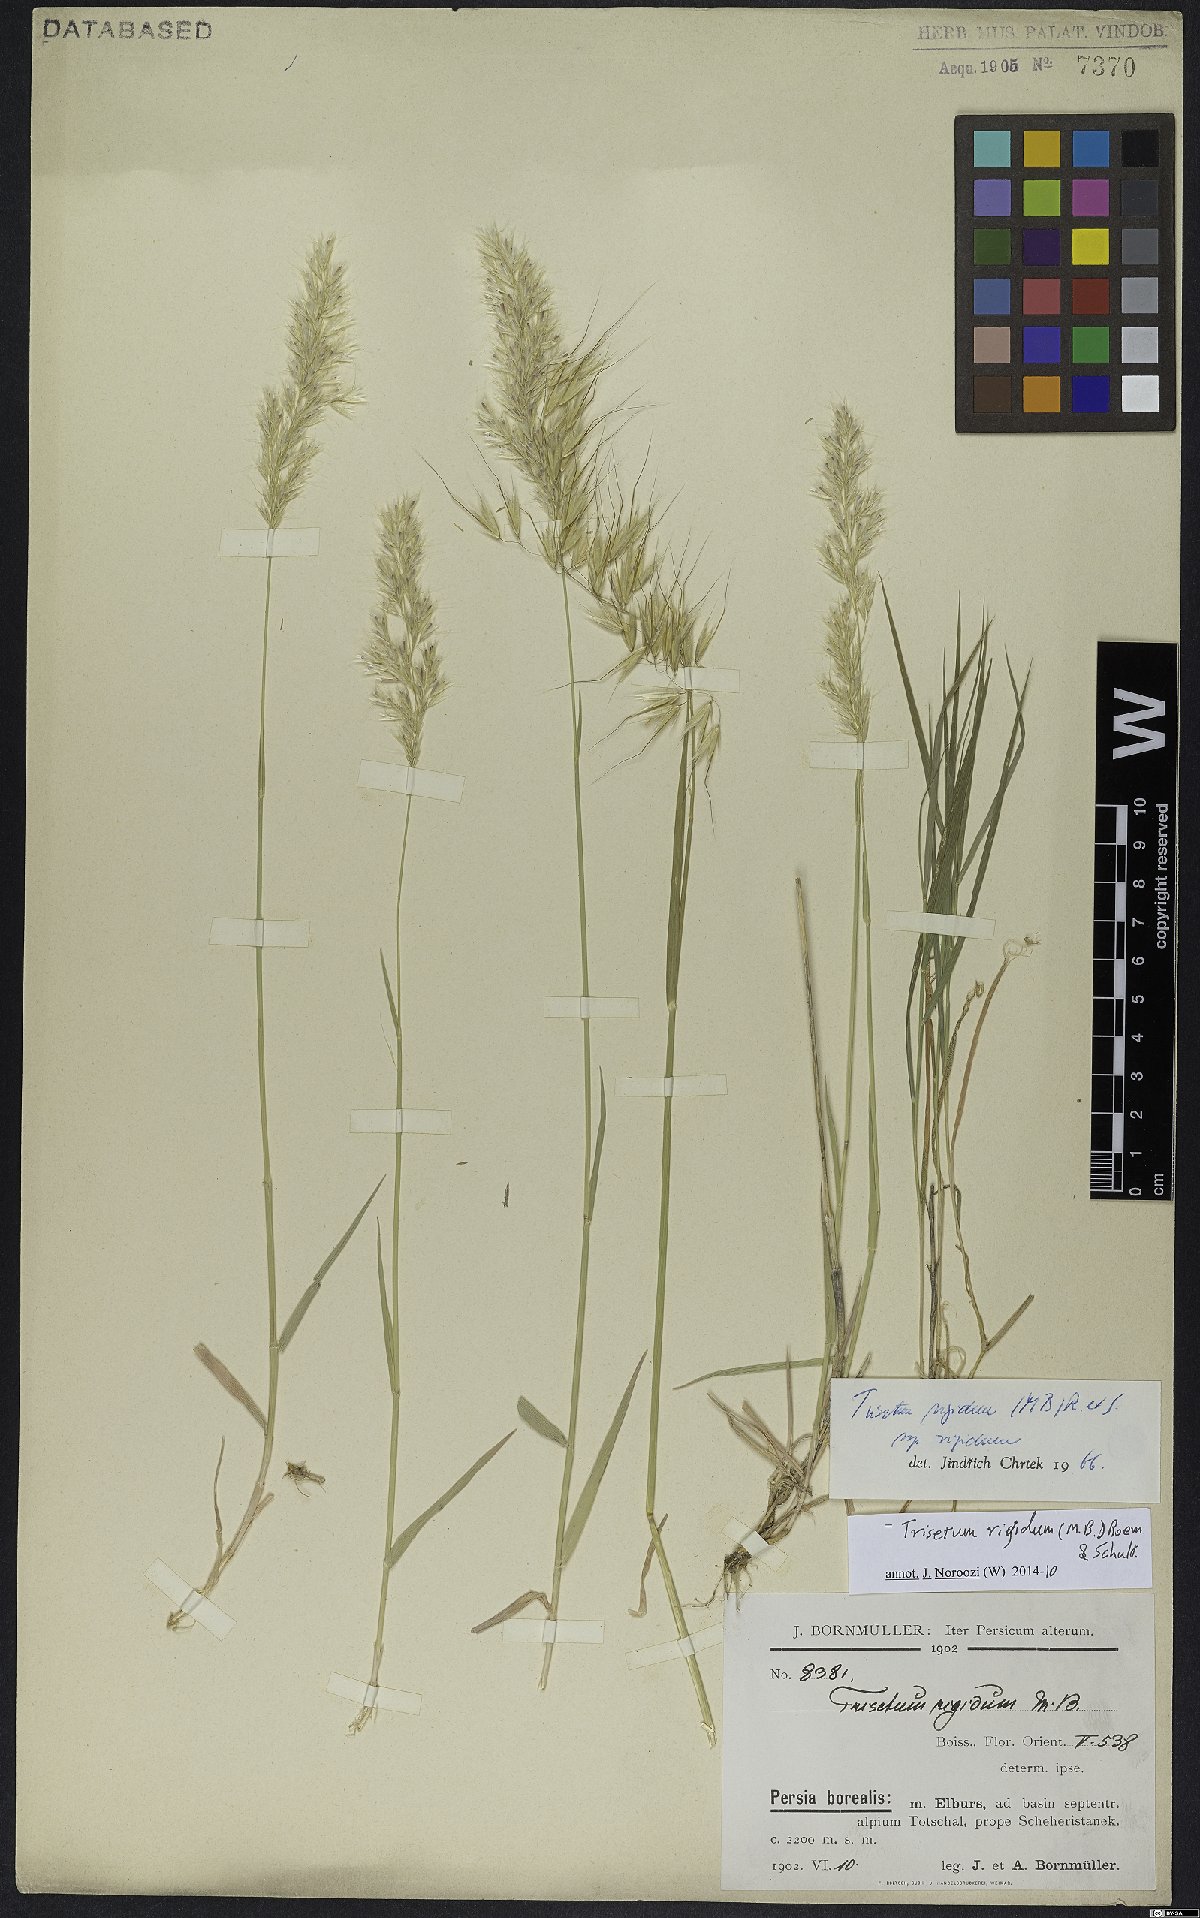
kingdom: Plantae
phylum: Tracheophyta
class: Liliopsida
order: Poales
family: Poaceae
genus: Trisetum
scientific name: Trisetum rigidum
